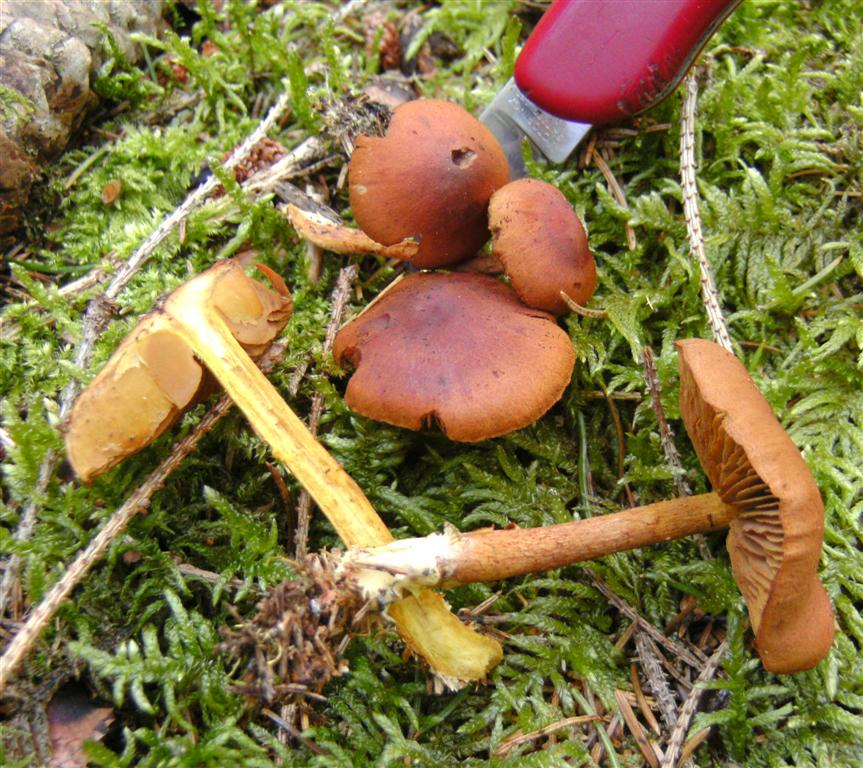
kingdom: Fungi
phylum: Basidiomycota
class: Agaricomycetes
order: Agaricales
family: Cortinariaceae
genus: Cortinarius
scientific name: Cortinarius cinnamomeus
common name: kanel-slørhat
